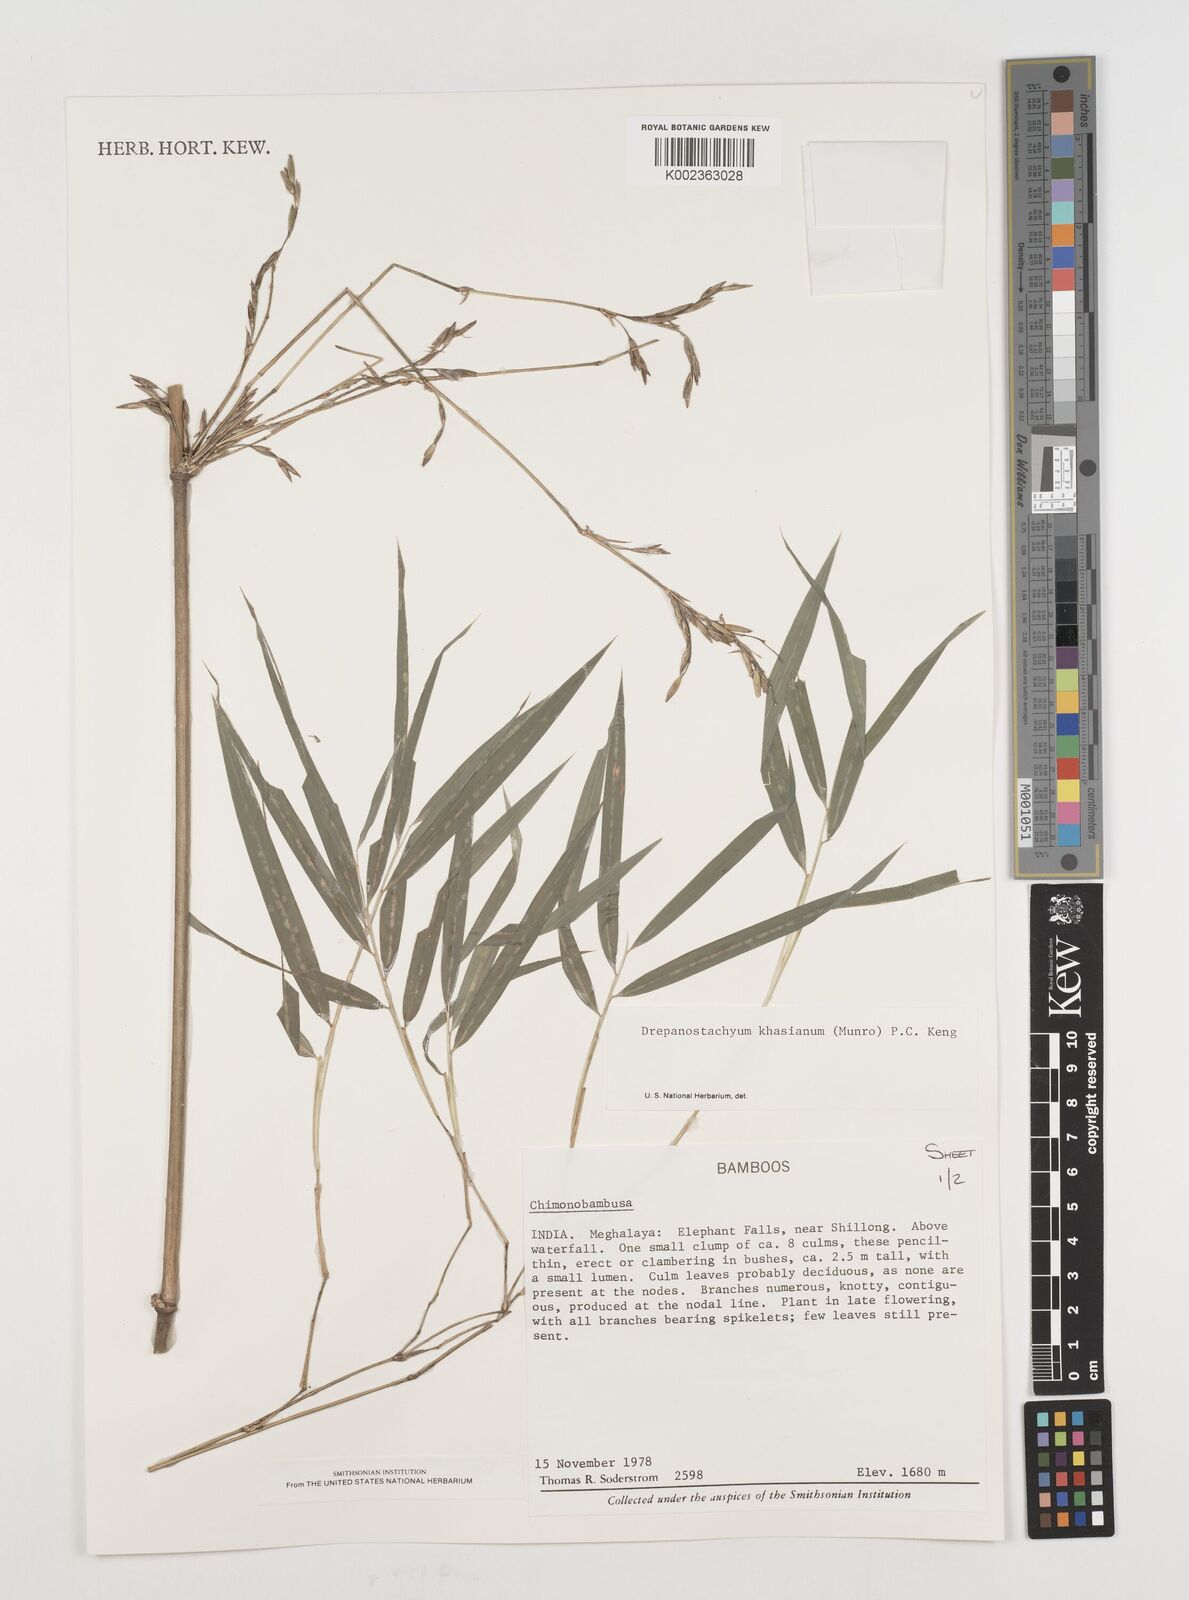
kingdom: Plantae
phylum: Tracheophyta
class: Liliopsida
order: Poales
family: Poaceae
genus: Drepanostachyum
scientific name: Drepanostachyum khasianum
